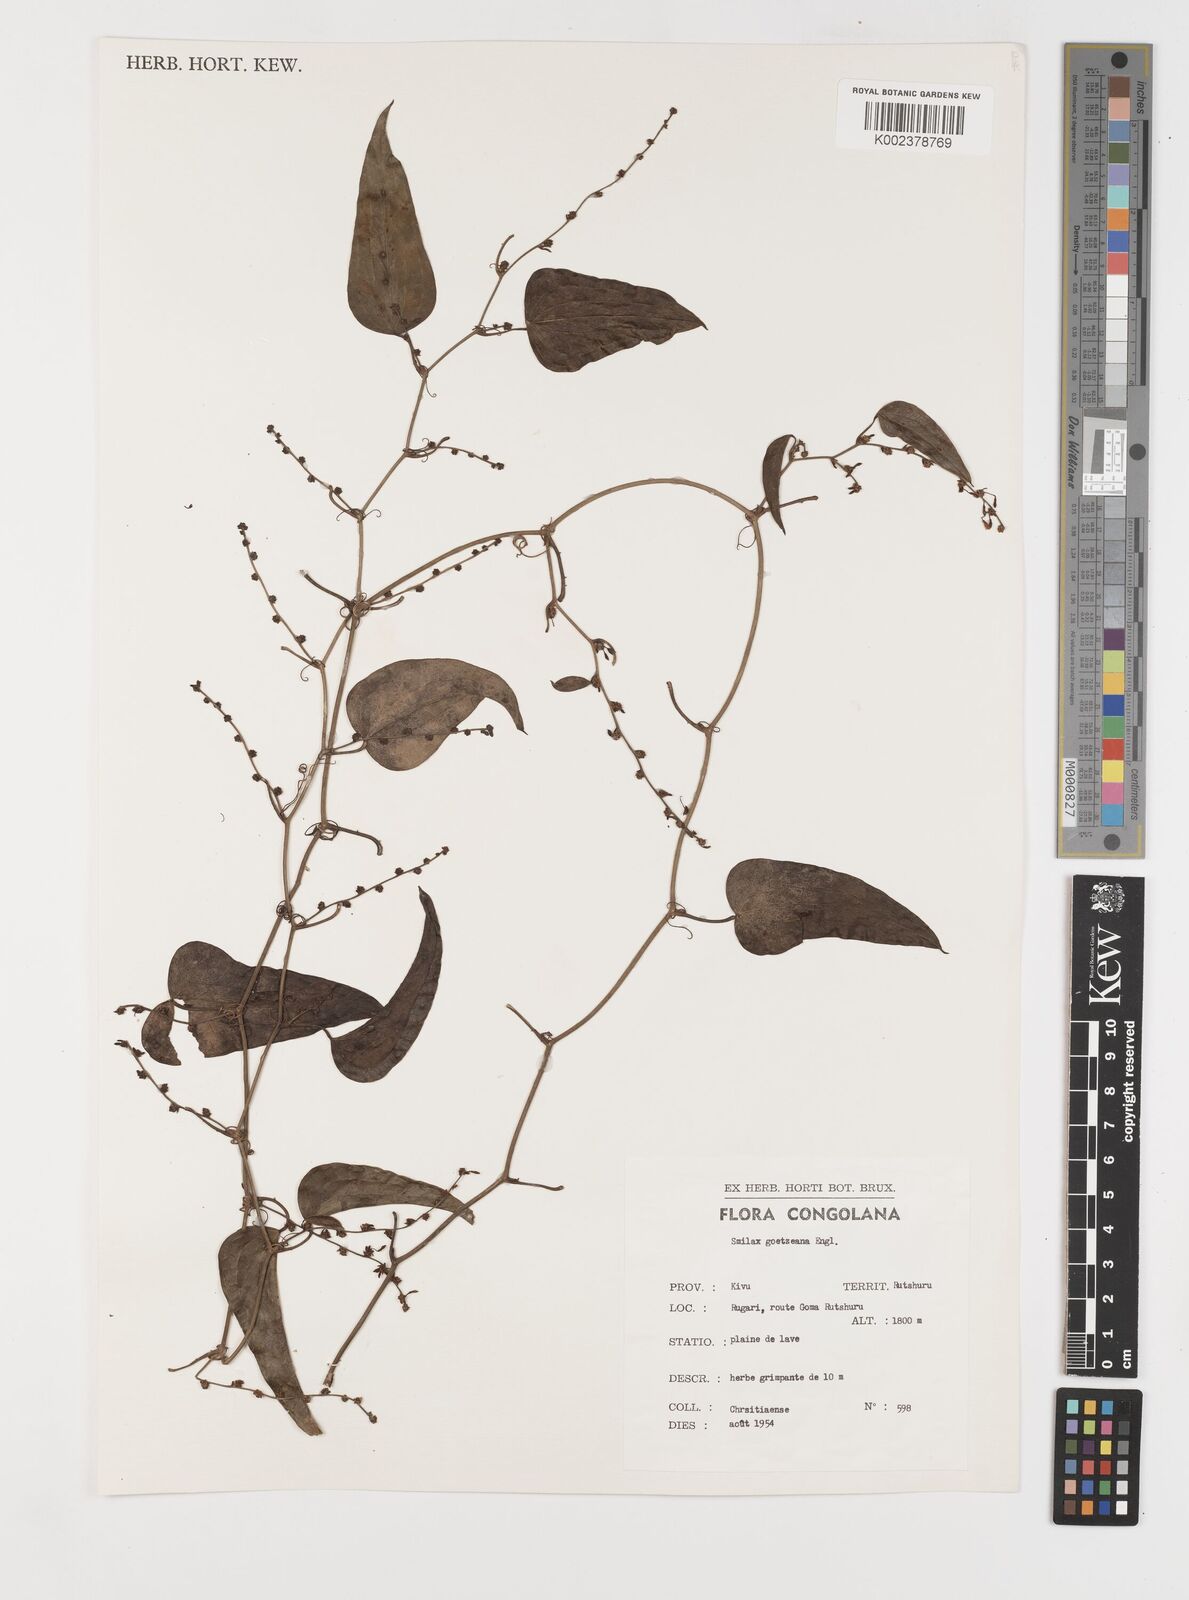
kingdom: Plantae
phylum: Tracheophyta
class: Liliopsida
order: Liliales
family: Smilacaceae
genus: Smilax
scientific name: Smilax aspera
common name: Common smilax
